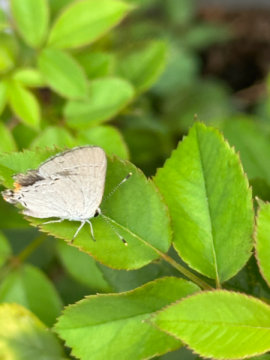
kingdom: Animalia
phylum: Arthropoda
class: Insecta
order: Lepidoptera
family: Lycaenidae
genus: Strymon
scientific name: Strymon melinus
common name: Gray Hairstreak
